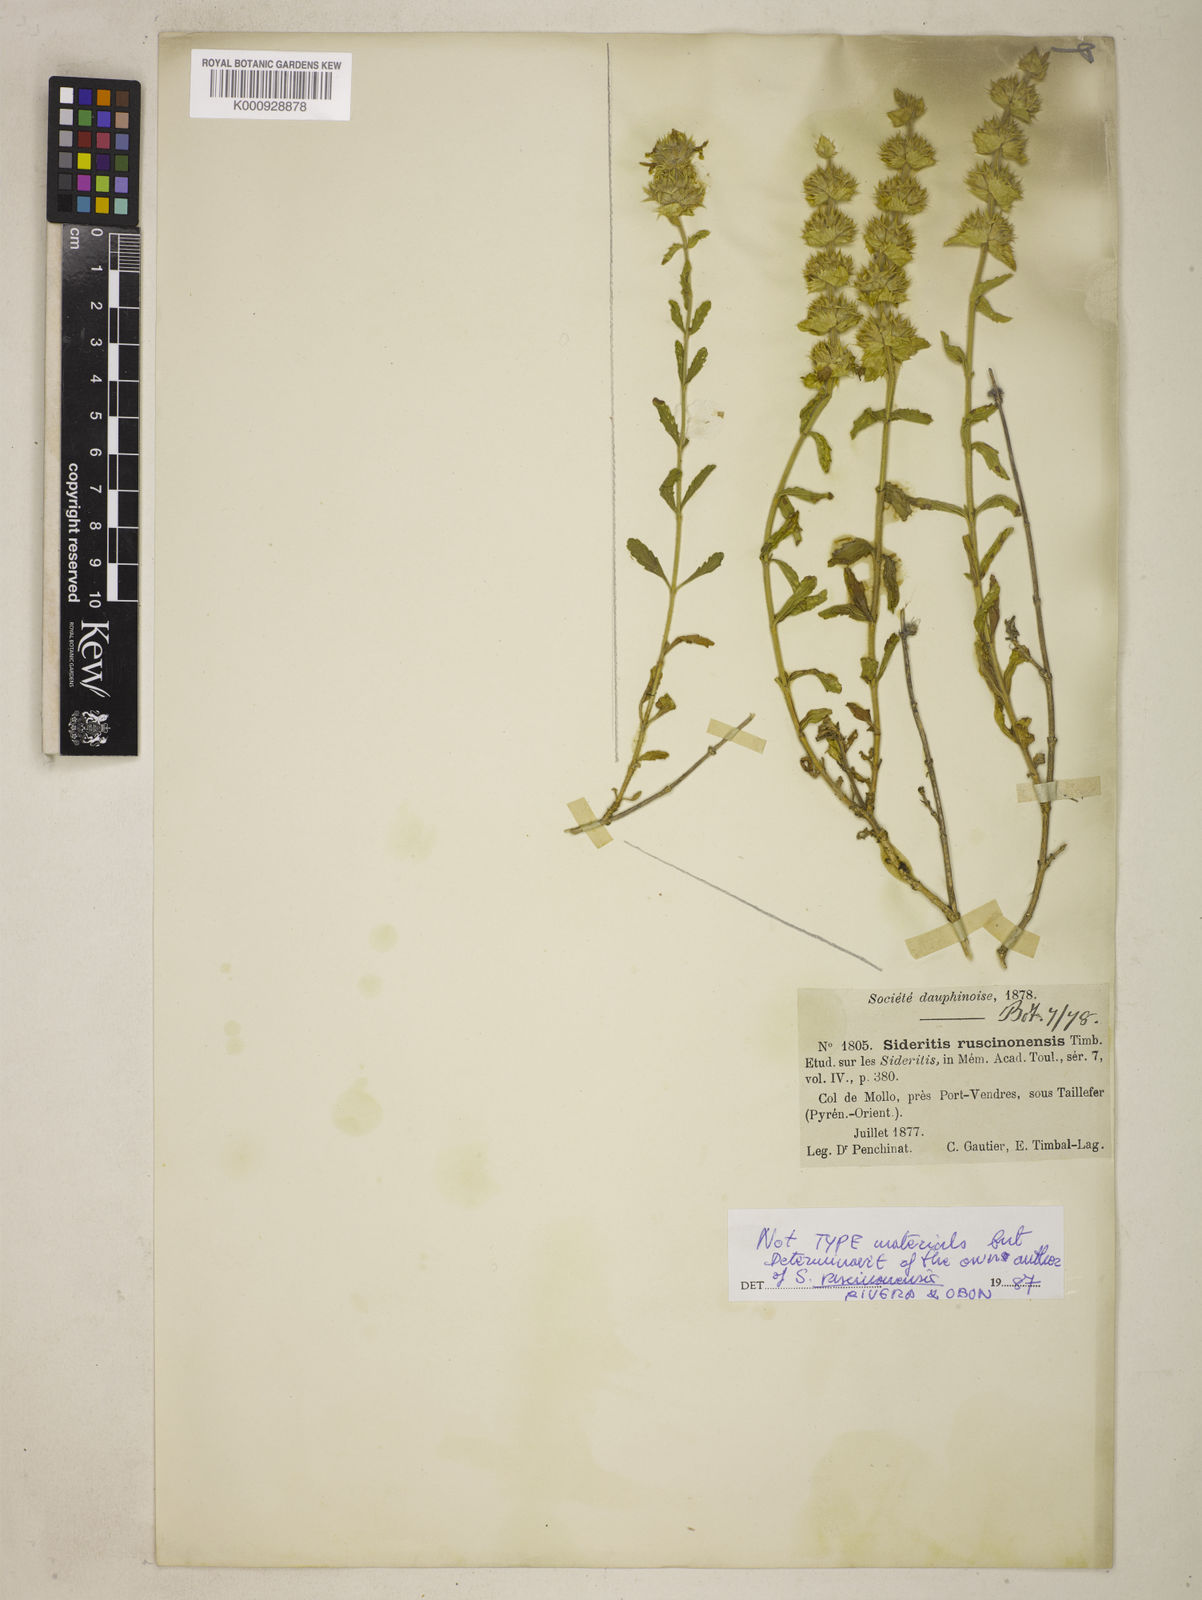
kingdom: Plantae
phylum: Tracheophyta
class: Magnoliopsida
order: Lamiales
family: Lamiaceae
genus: Sideritis
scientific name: Sideritis endressii
